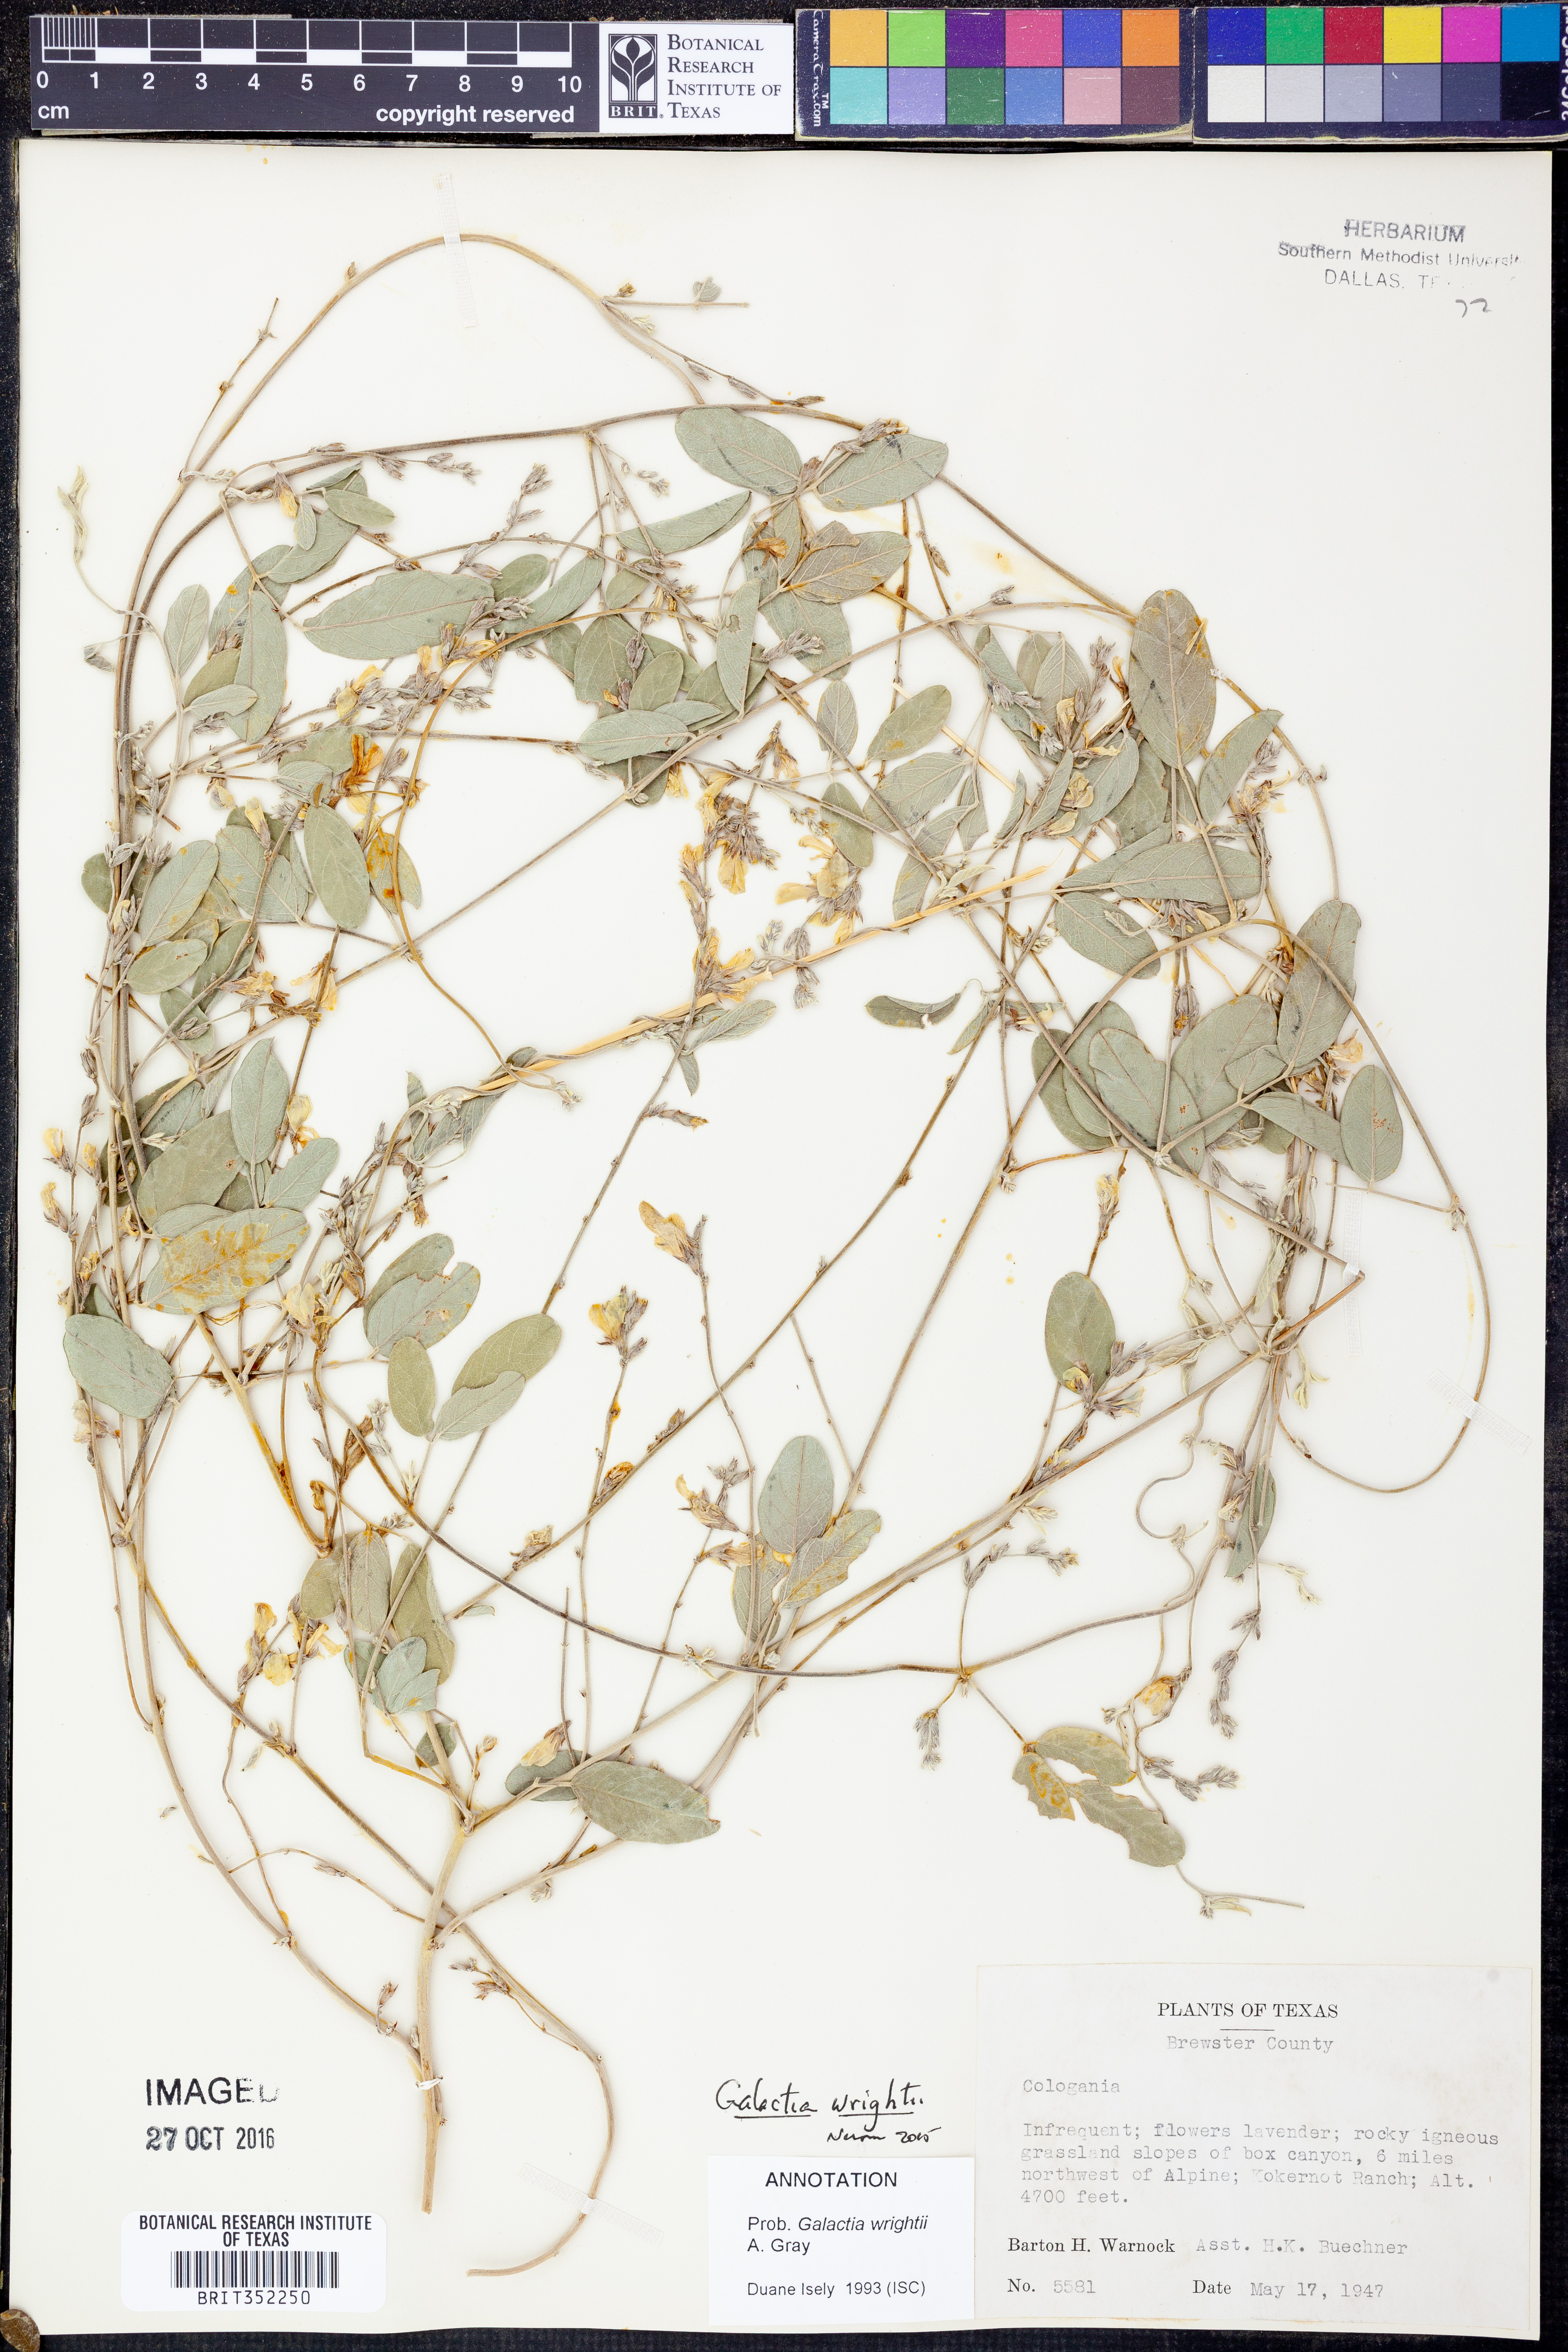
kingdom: Plantae
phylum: Tracheophyta
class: Magnoliopsida
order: Fabales
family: Fabaceae
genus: Galactia
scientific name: Galactia wrightii
